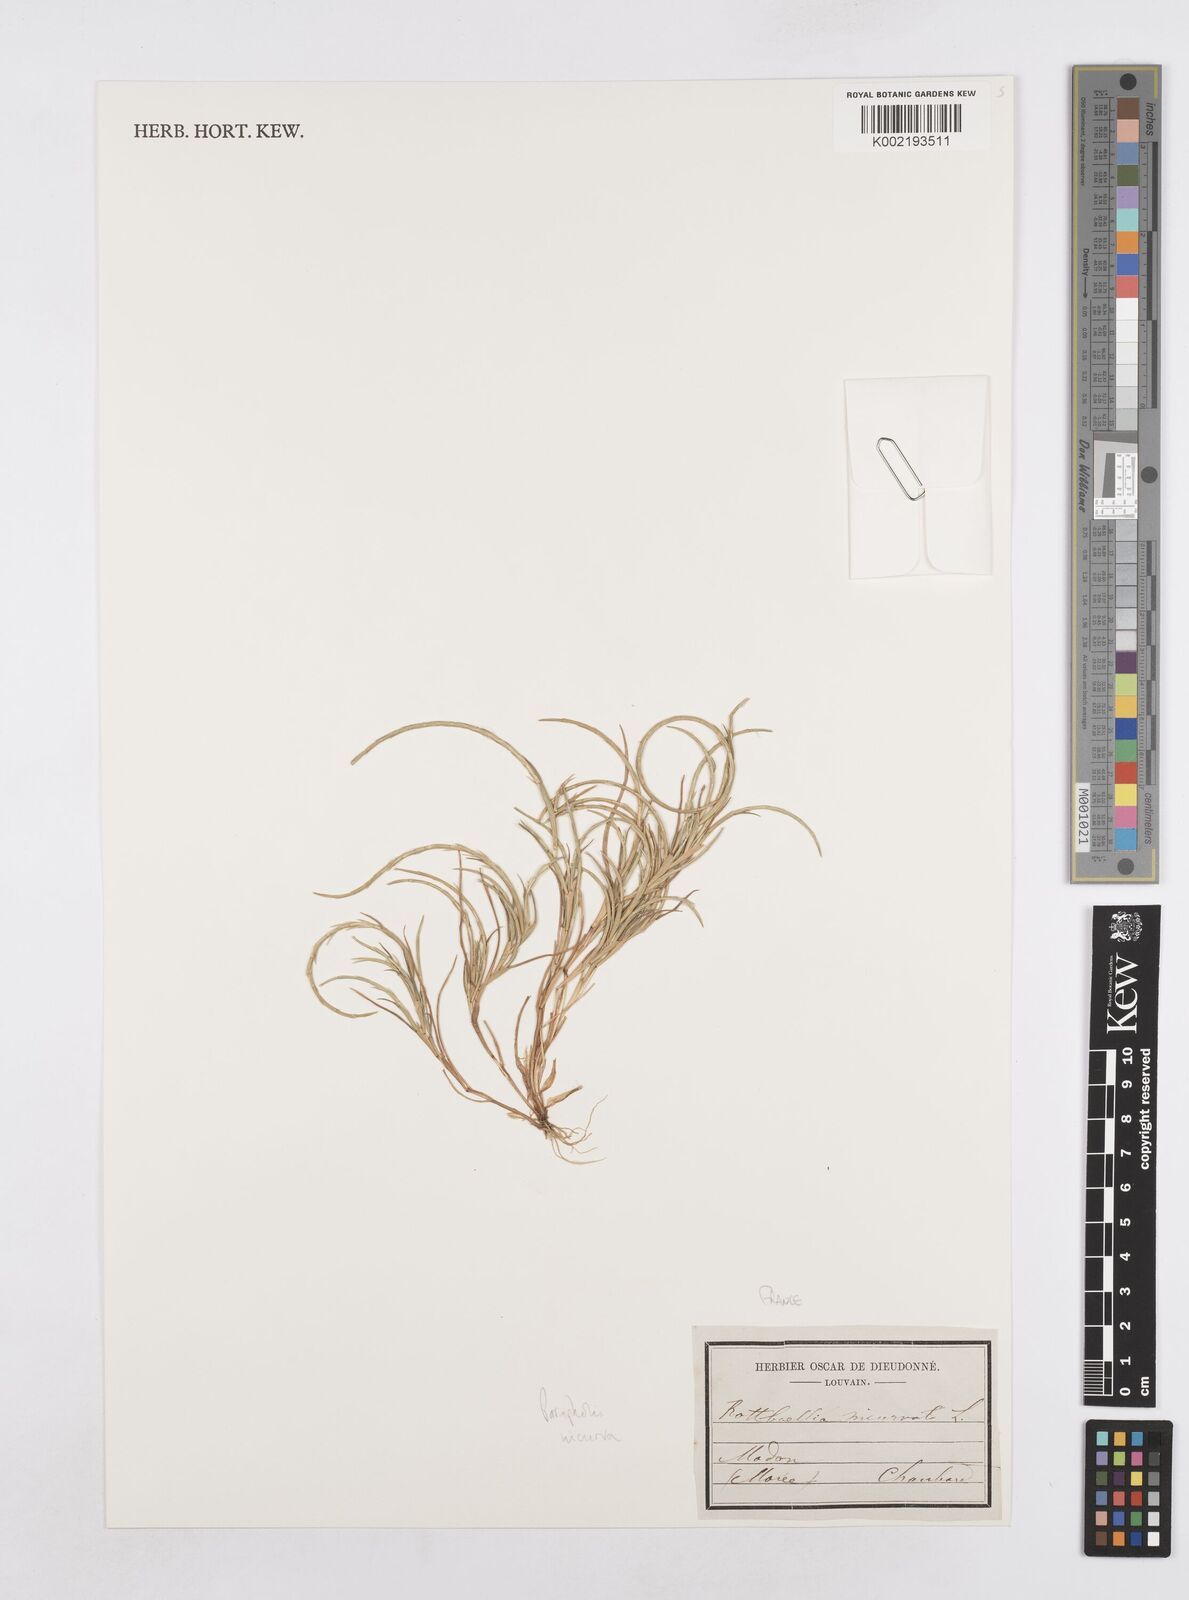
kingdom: Plantae
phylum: Tracheophyta
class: Liliopsida
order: Poales
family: Poaceae
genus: Parapholis
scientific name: Parapholis incurva
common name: Curved sicklegrass
